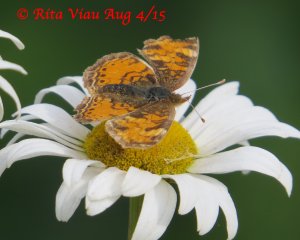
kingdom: Animalia
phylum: Arthropoda
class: Insecta
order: Lepidoptera
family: Nymphalidae
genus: Phyciodes
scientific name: Phyciodes tharos
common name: Northern Crescent
